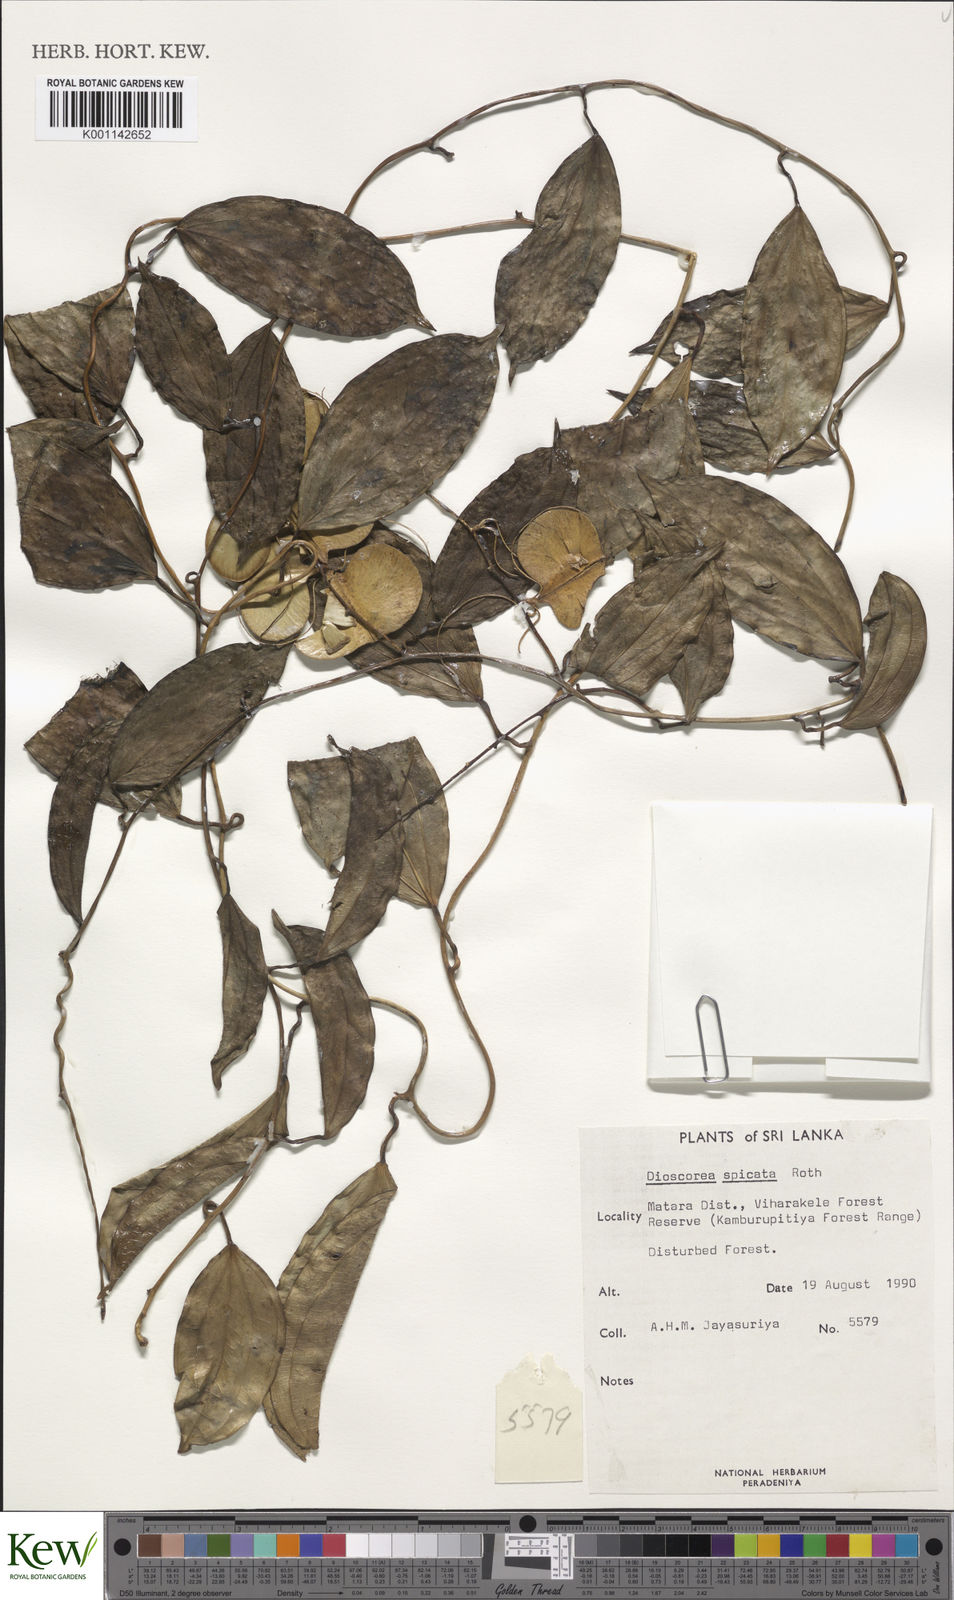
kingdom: Plantae
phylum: Tracheophyta
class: Liliopsida
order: Dioscoreales
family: Dioscoreaceae
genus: Dioscorea
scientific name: Dioscorea spicata
